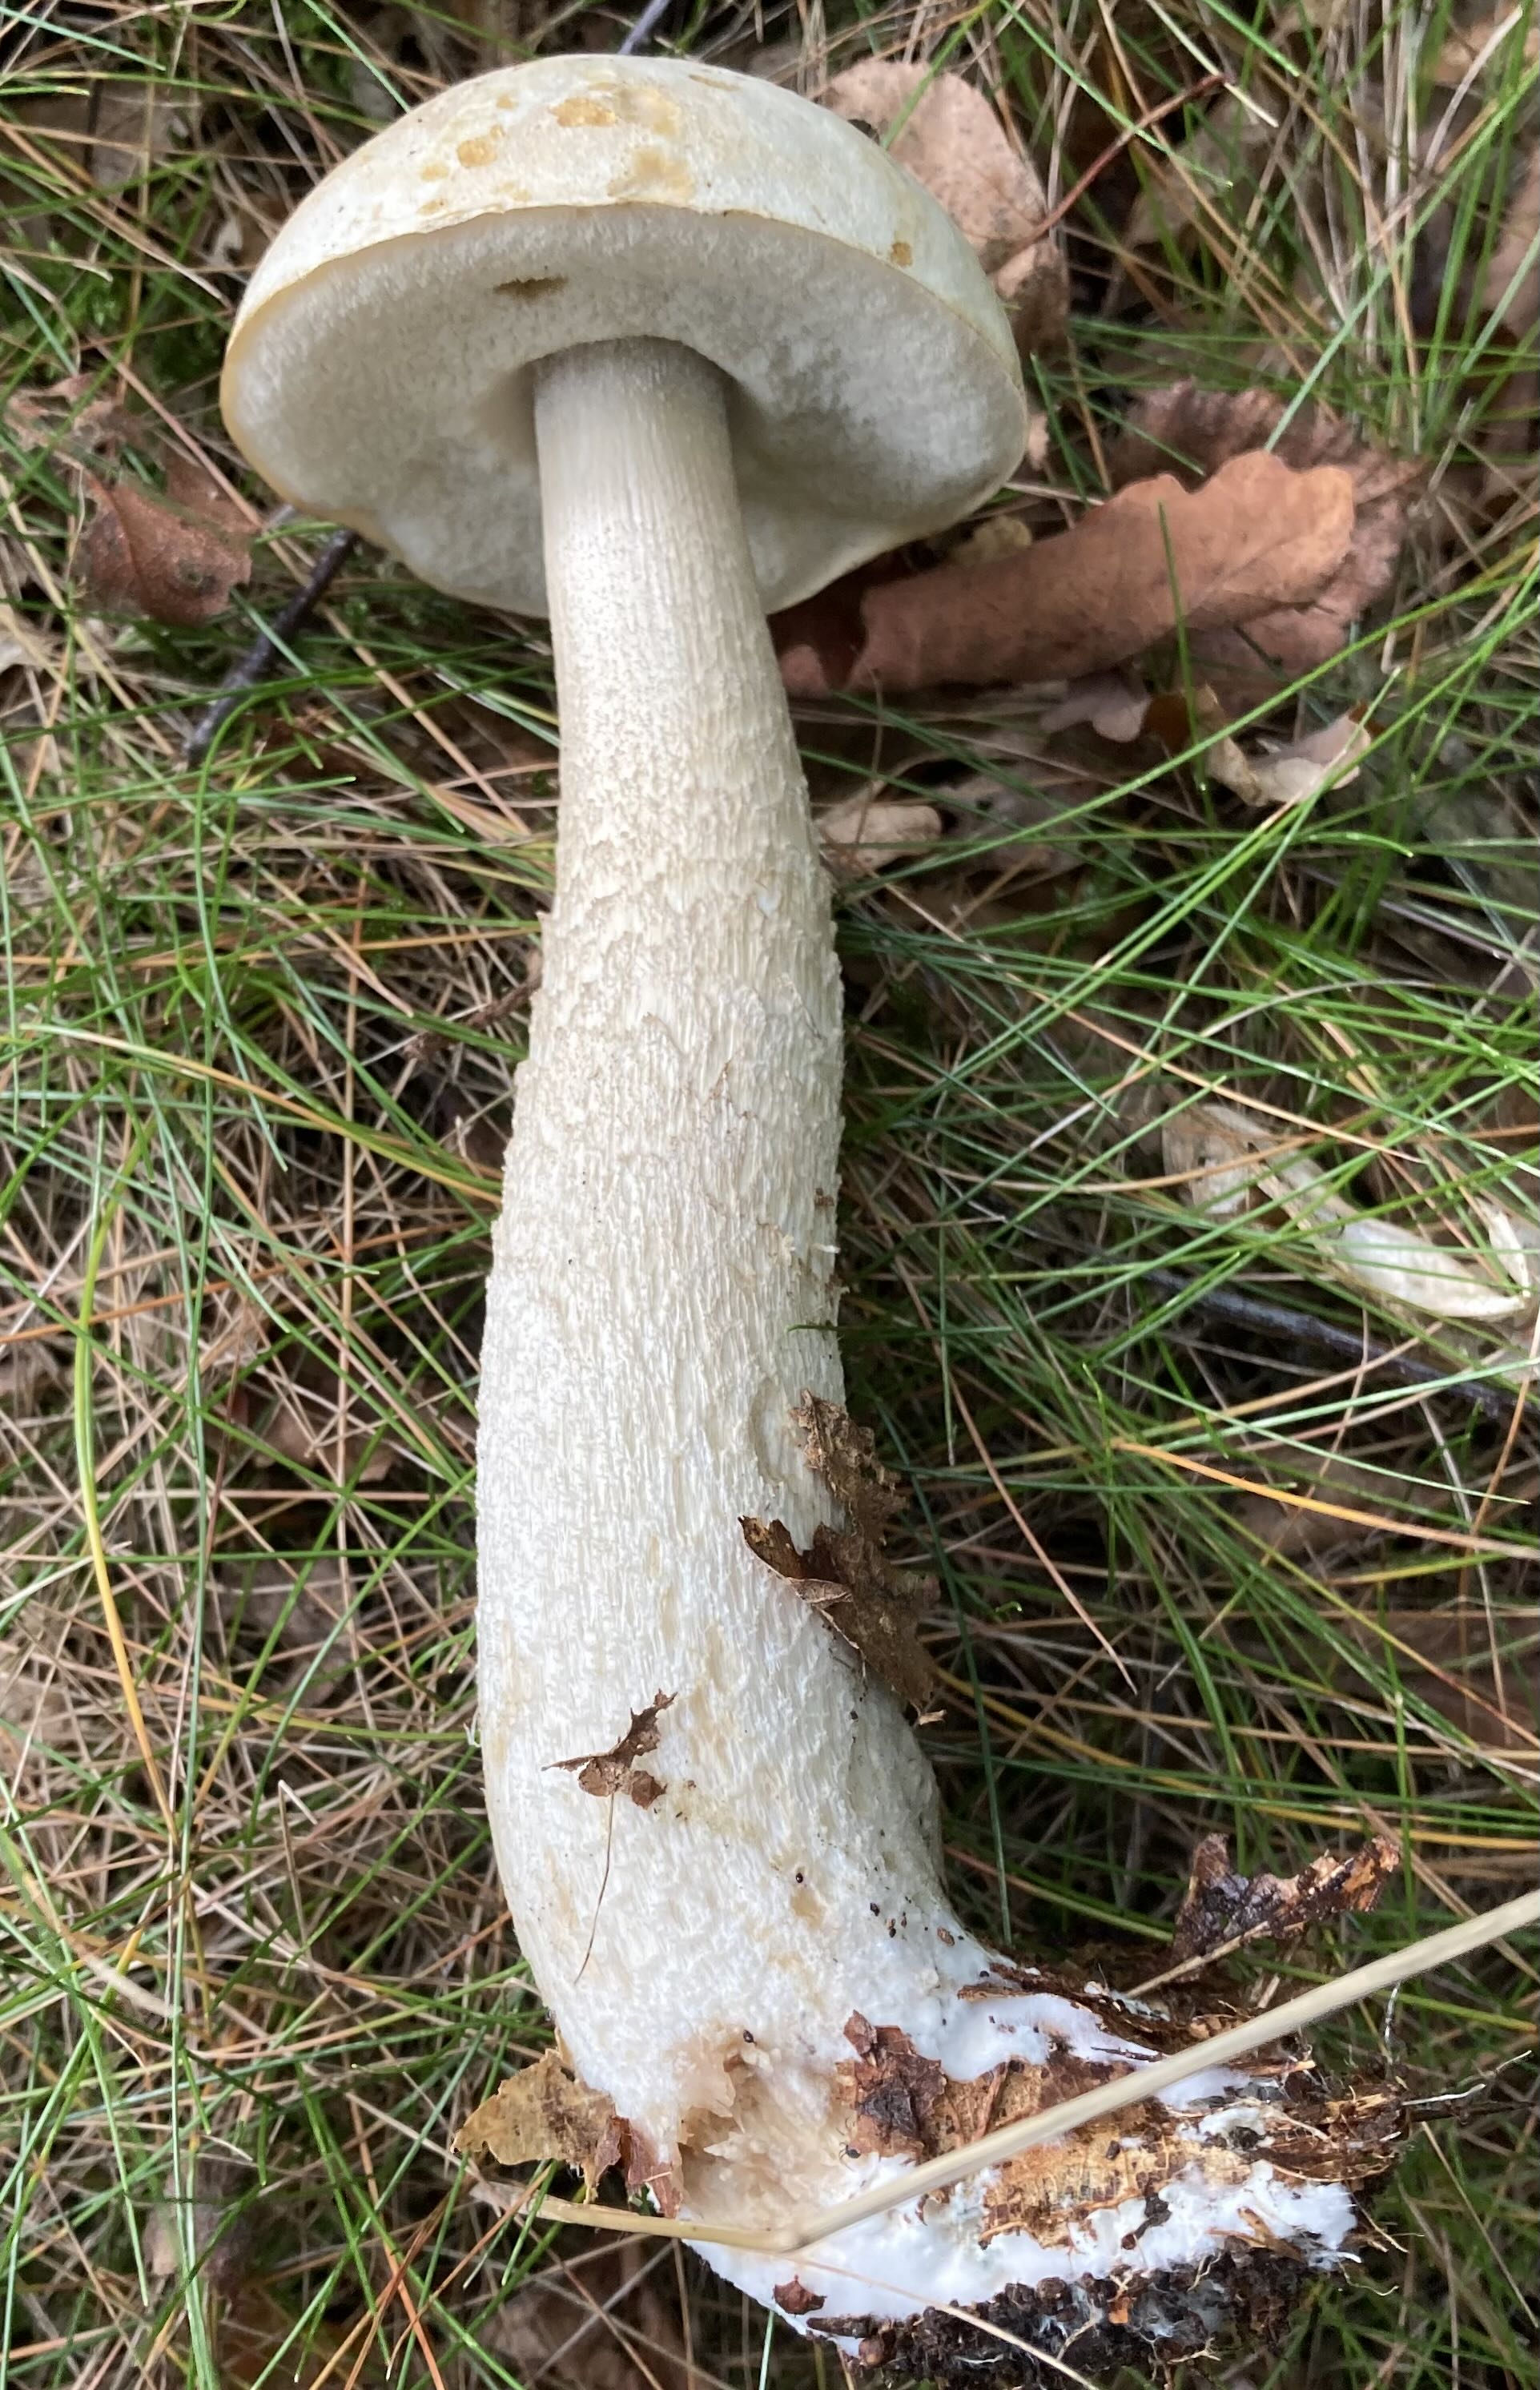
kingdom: Fungi
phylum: Basidiomycota
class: Agaricomycetes
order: Boletales
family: Boletaceae
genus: Leccinum
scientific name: Leccinum scabrum
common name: hvid skælrørhat
